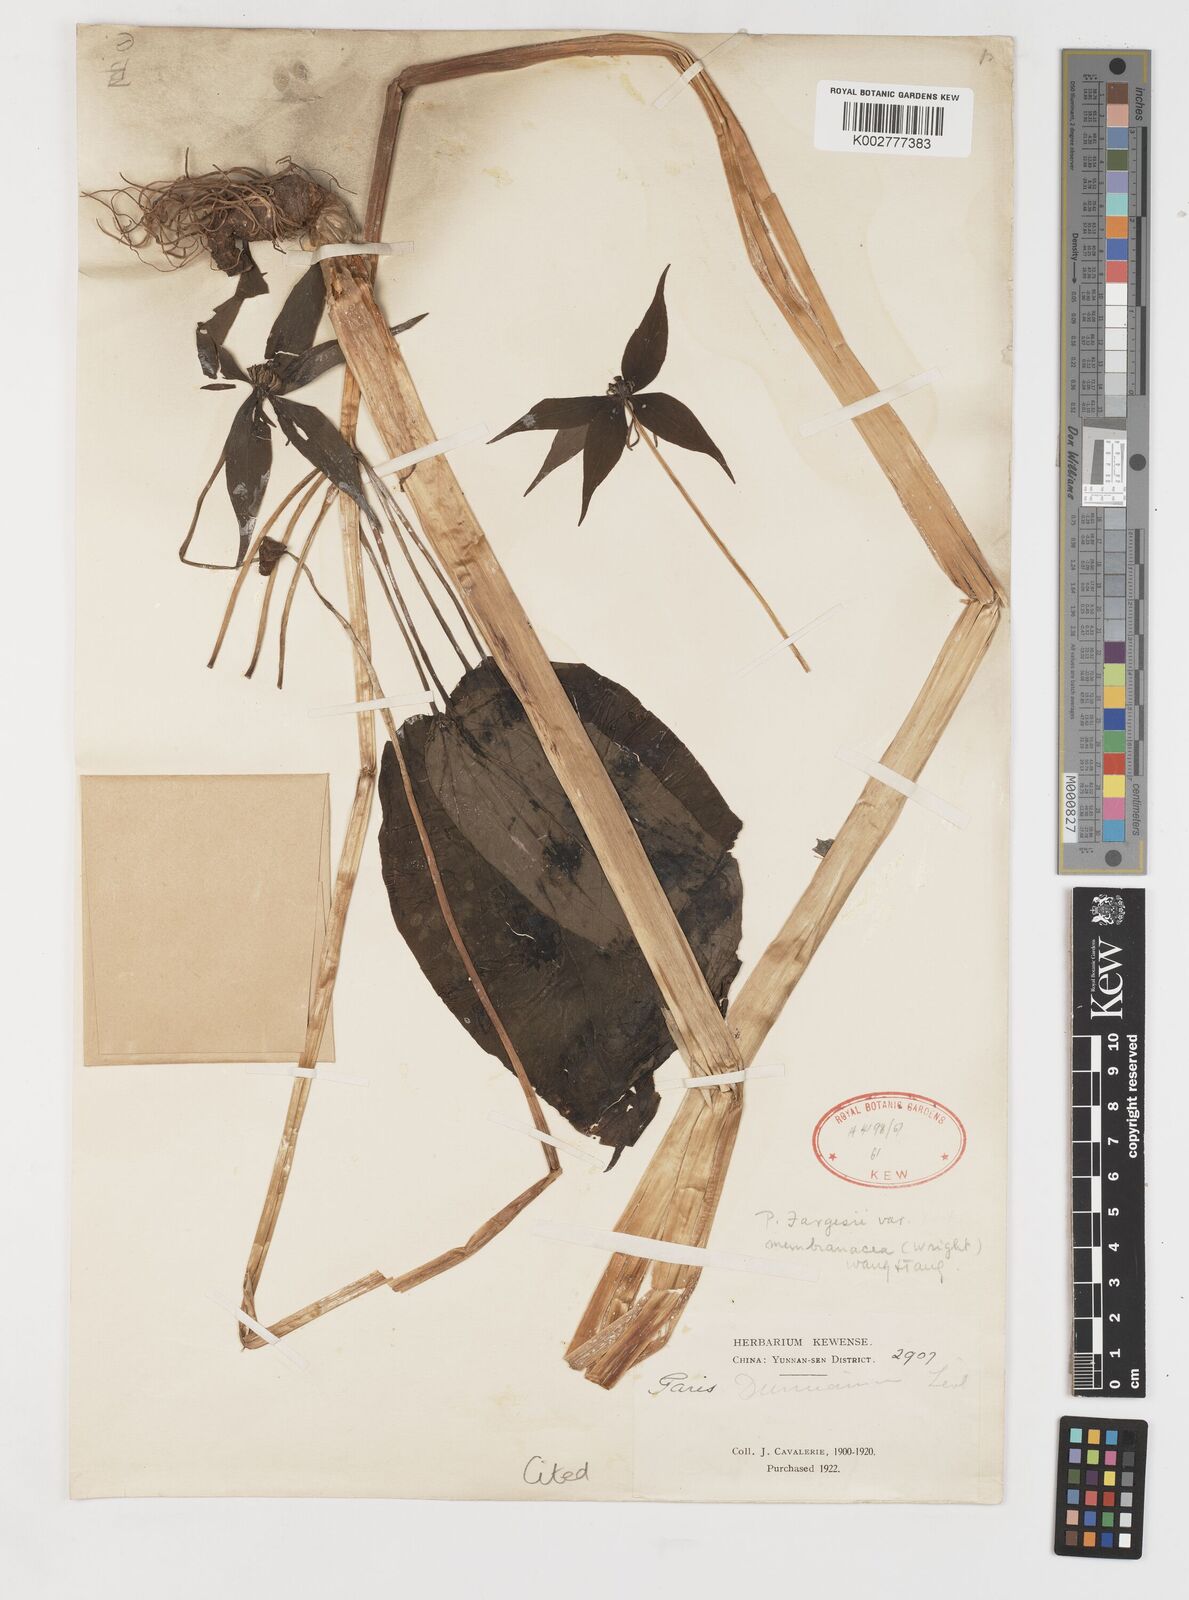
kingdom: Plantae
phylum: Tracheophyta
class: Liliopsida
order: Liliales
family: Melanthiaceae
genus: Paris
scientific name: Paris fargesii
